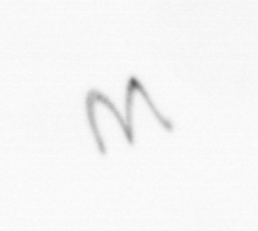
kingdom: Chromista
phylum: Ochrophyta
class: Bacillariophyceae
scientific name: Bacillariophyceae
